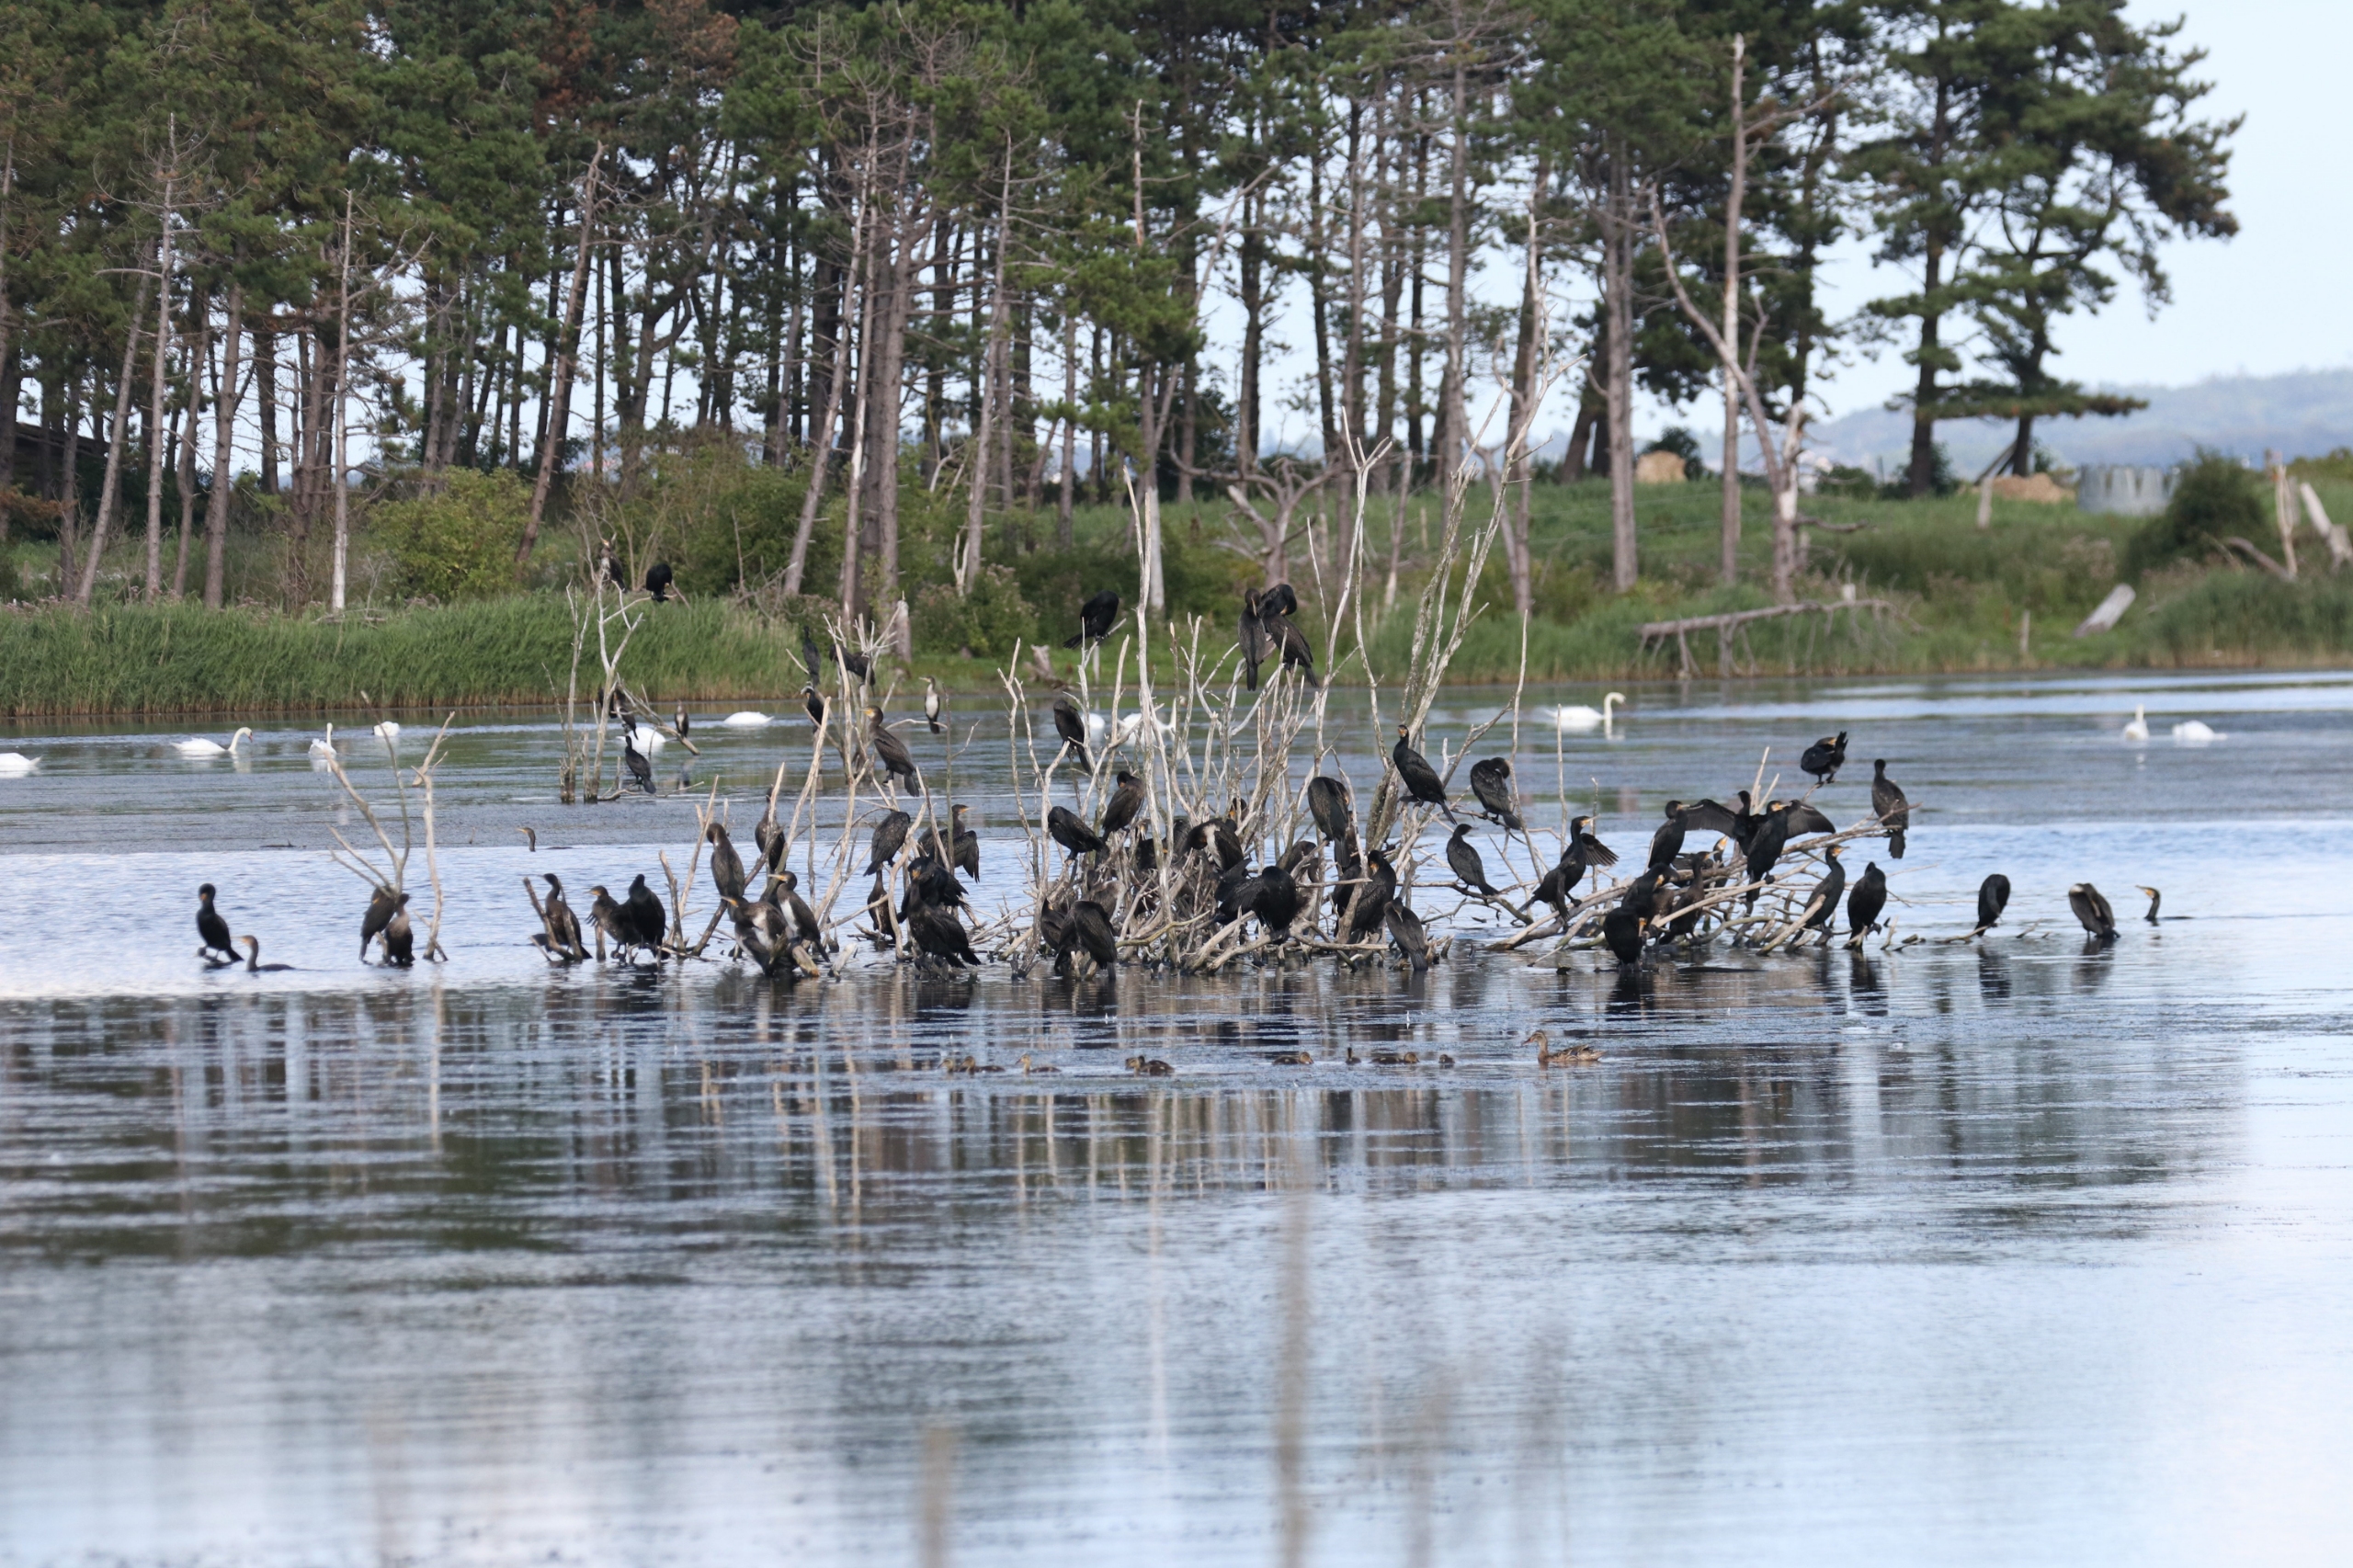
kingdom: Animalia
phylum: Chordata
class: Aves
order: Suliformes
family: Phalacrocoracidae
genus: Phalacrocorax
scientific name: Phalacrocorax carbo
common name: Skarv
